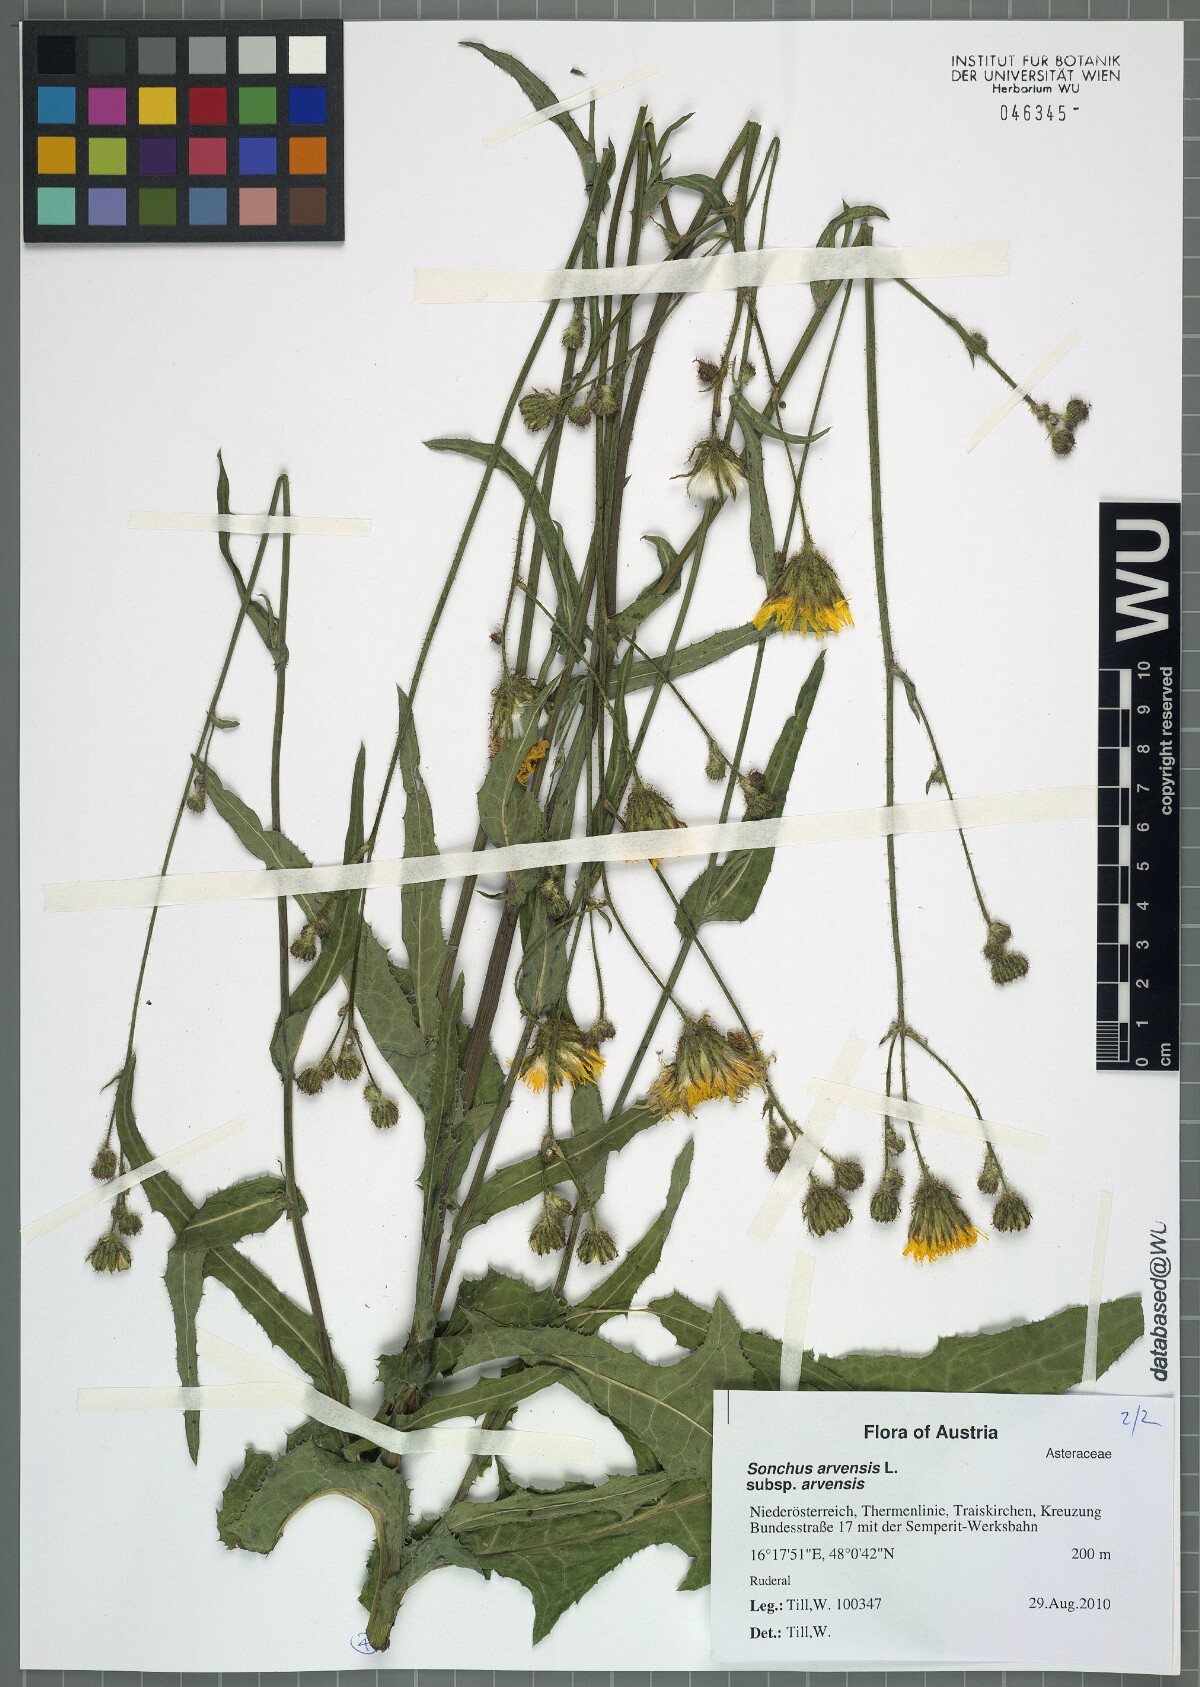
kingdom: Plantae
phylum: Tracheophyta
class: Magnoliopsida
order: Asterales
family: Asteraceae
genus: Sonchus
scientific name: Sonchus arvensis
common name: Perennial sow-thistle
